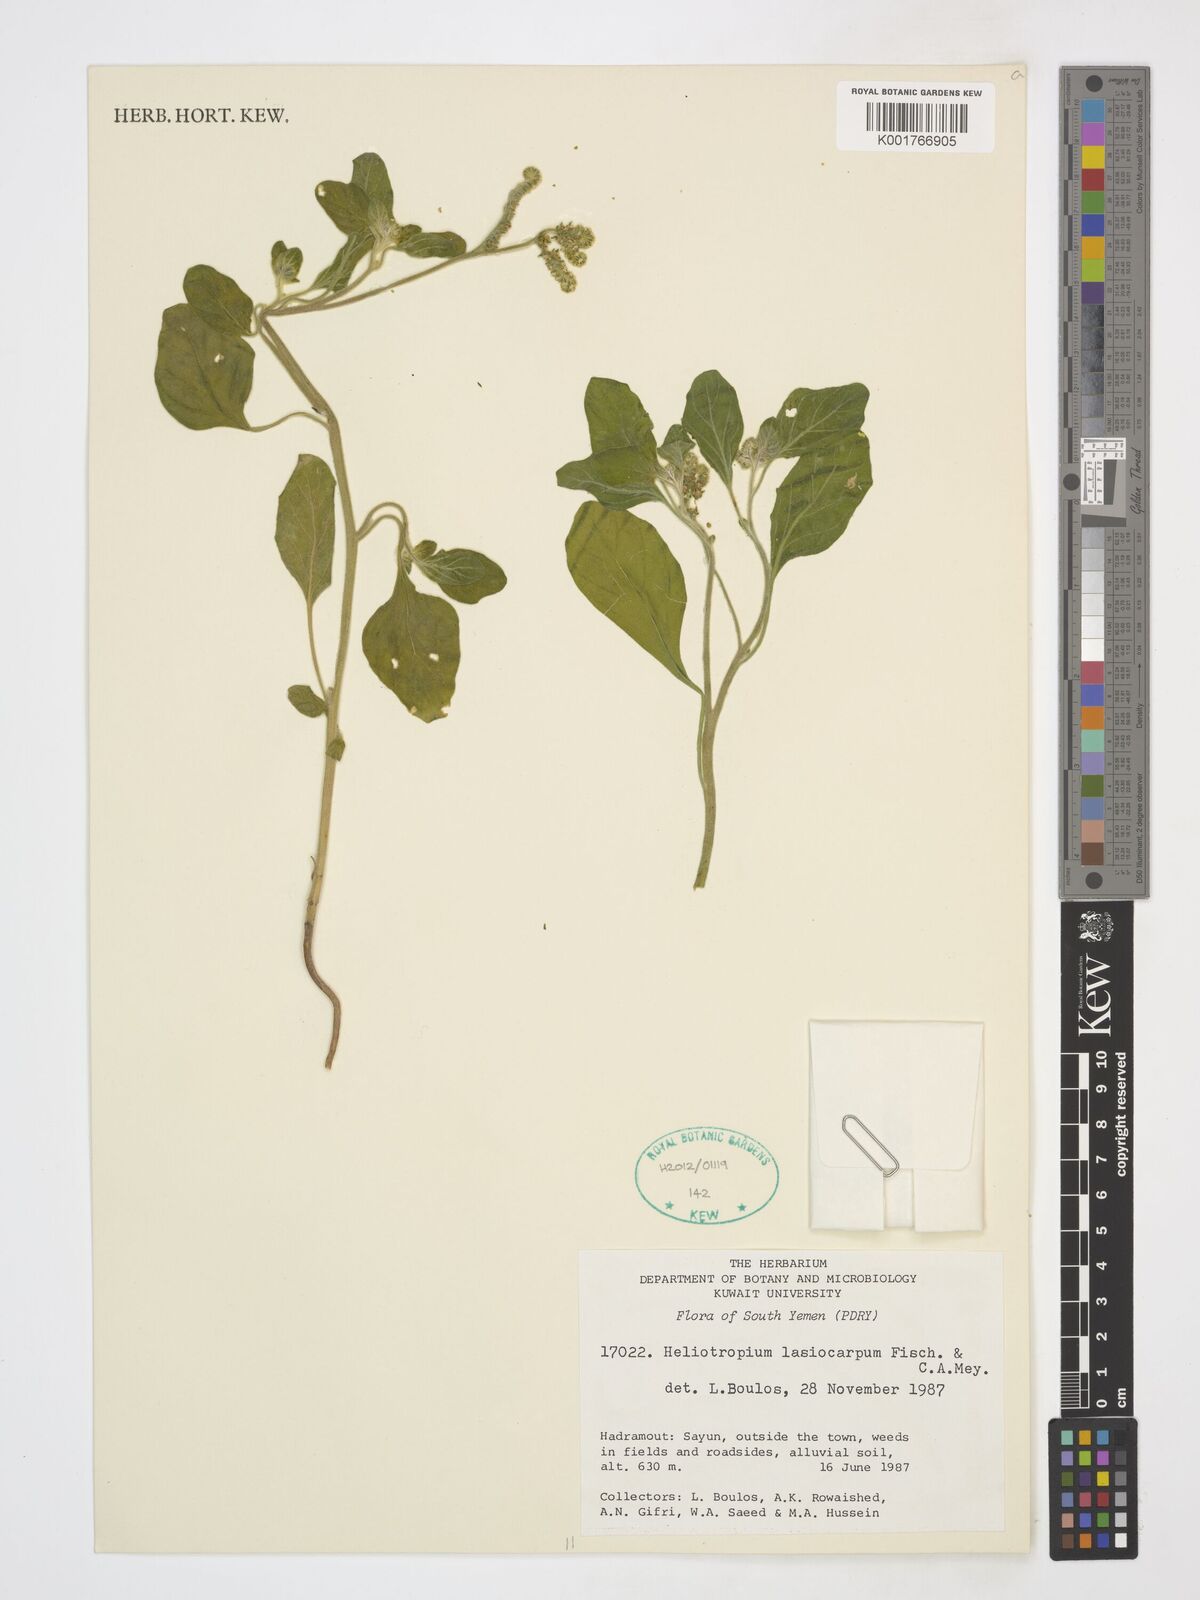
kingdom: Plantae
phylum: Tracheophyta
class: Magnoliopsida
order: Boraginales
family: Heliotropiaceae
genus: Heliotropium
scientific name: Heliotropium lasiocarpum
